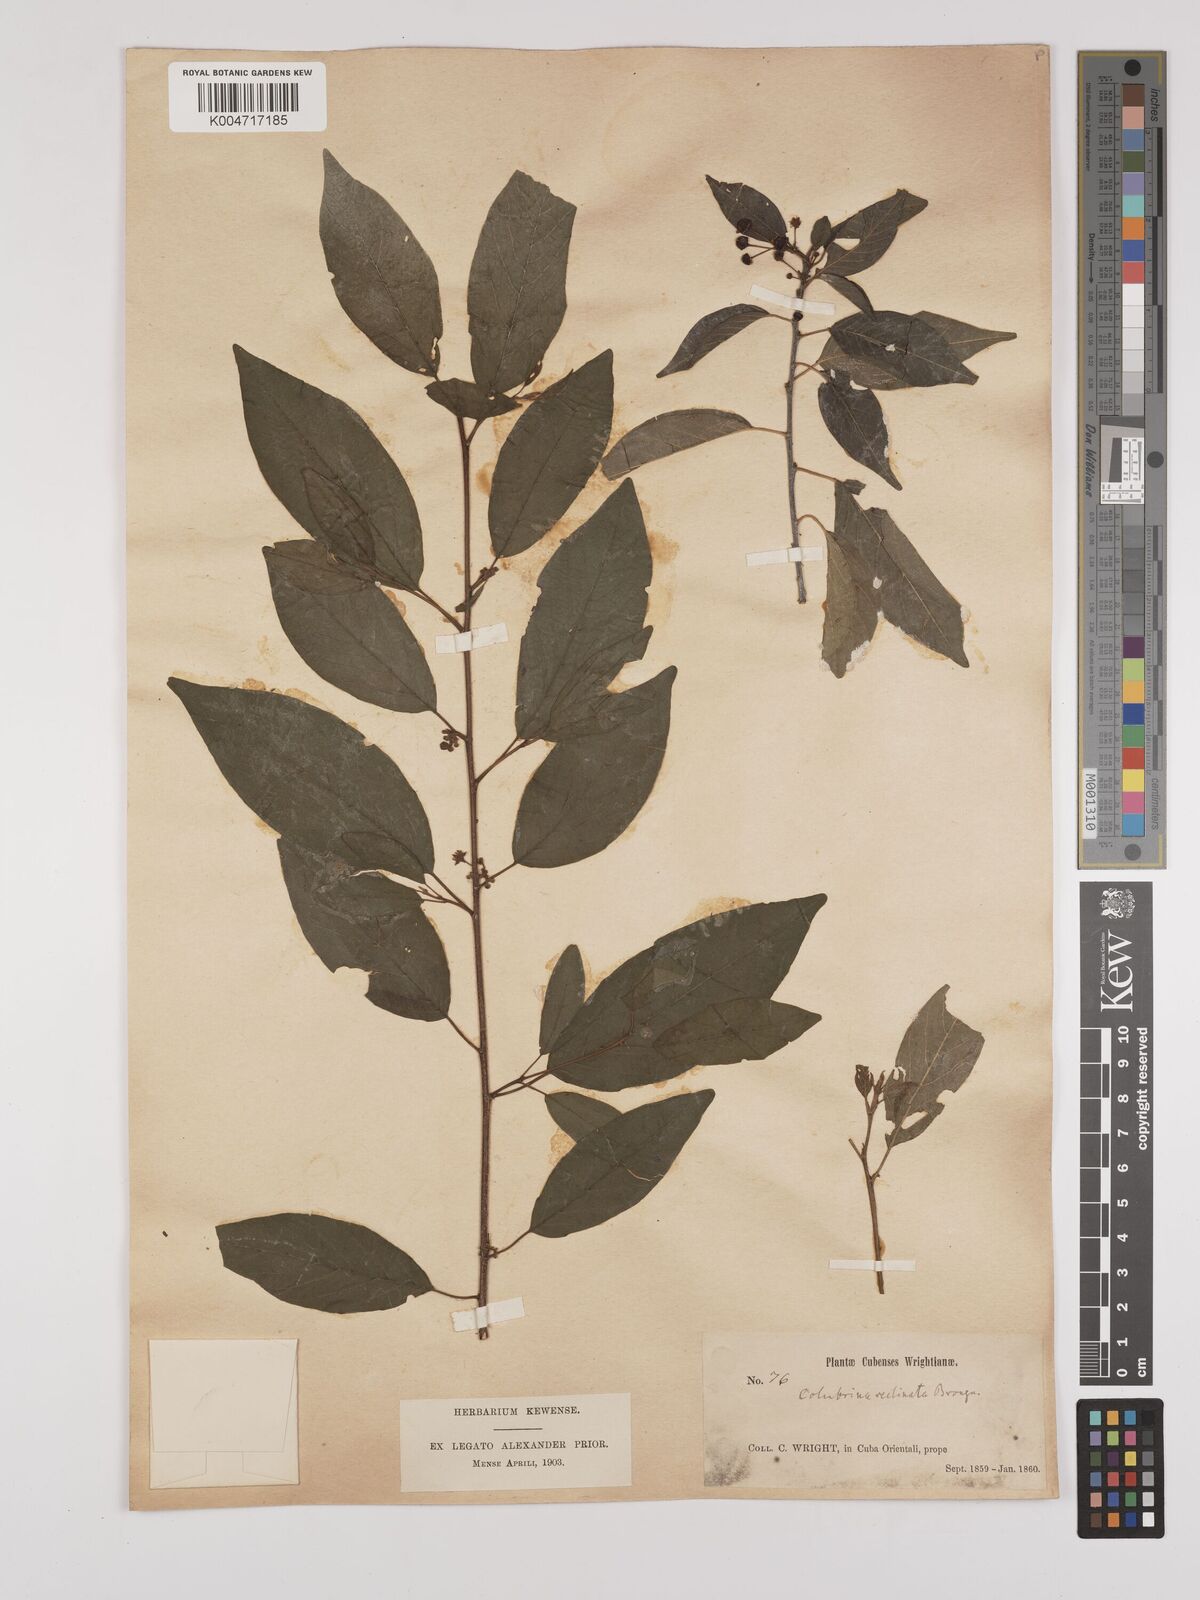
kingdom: Plantae
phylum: Tracheophyta
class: Magnoliopsida
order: Rosales
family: Rhamnaceae
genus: Colubrina
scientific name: Colubrina elliptica
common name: Soldierwood
